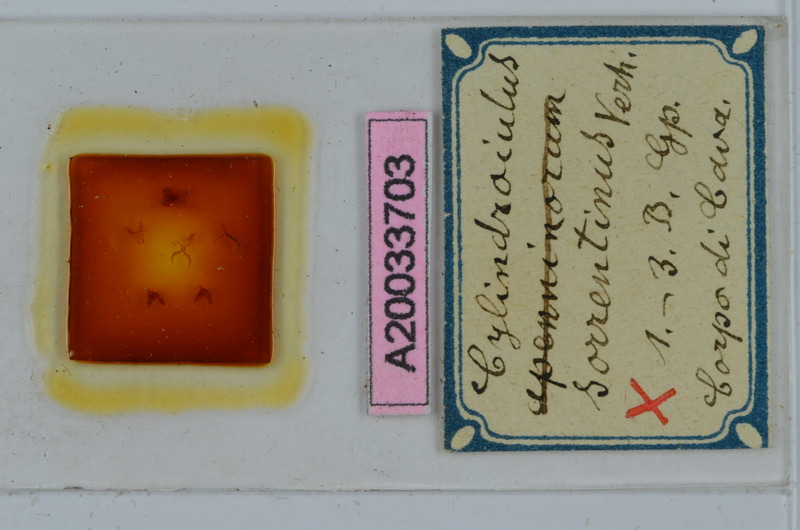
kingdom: Animalia
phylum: Arthropoda
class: Diplopoda
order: Julida
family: Julidae
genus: Cylindroiulus
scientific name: Cylindroiulus solis
